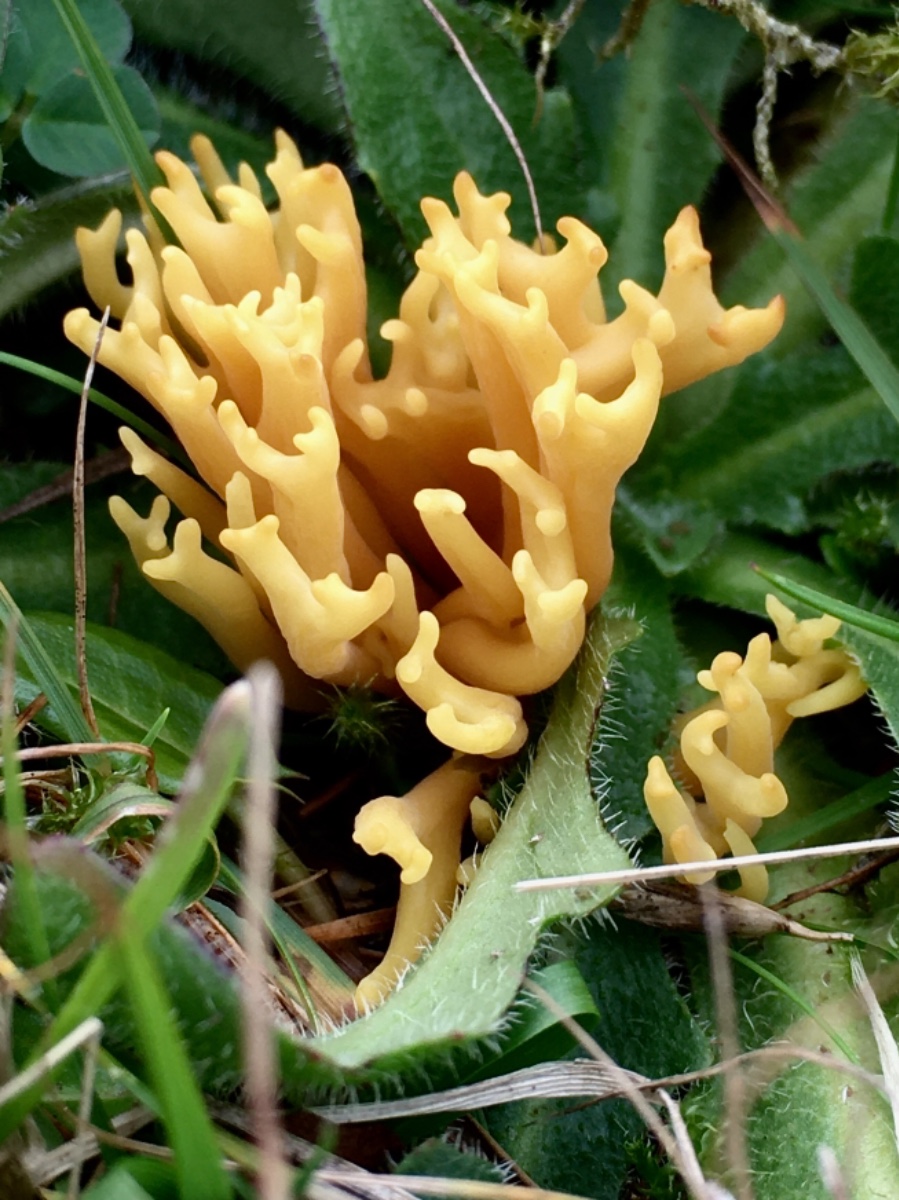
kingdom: Fungi
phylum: Basidiomycota
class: Agaricomycetes
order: Agaricales
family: Clavariaceae
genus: Clavulinopsis
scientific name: Clavulinopsis corniculata
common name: eng-køllesvamp
